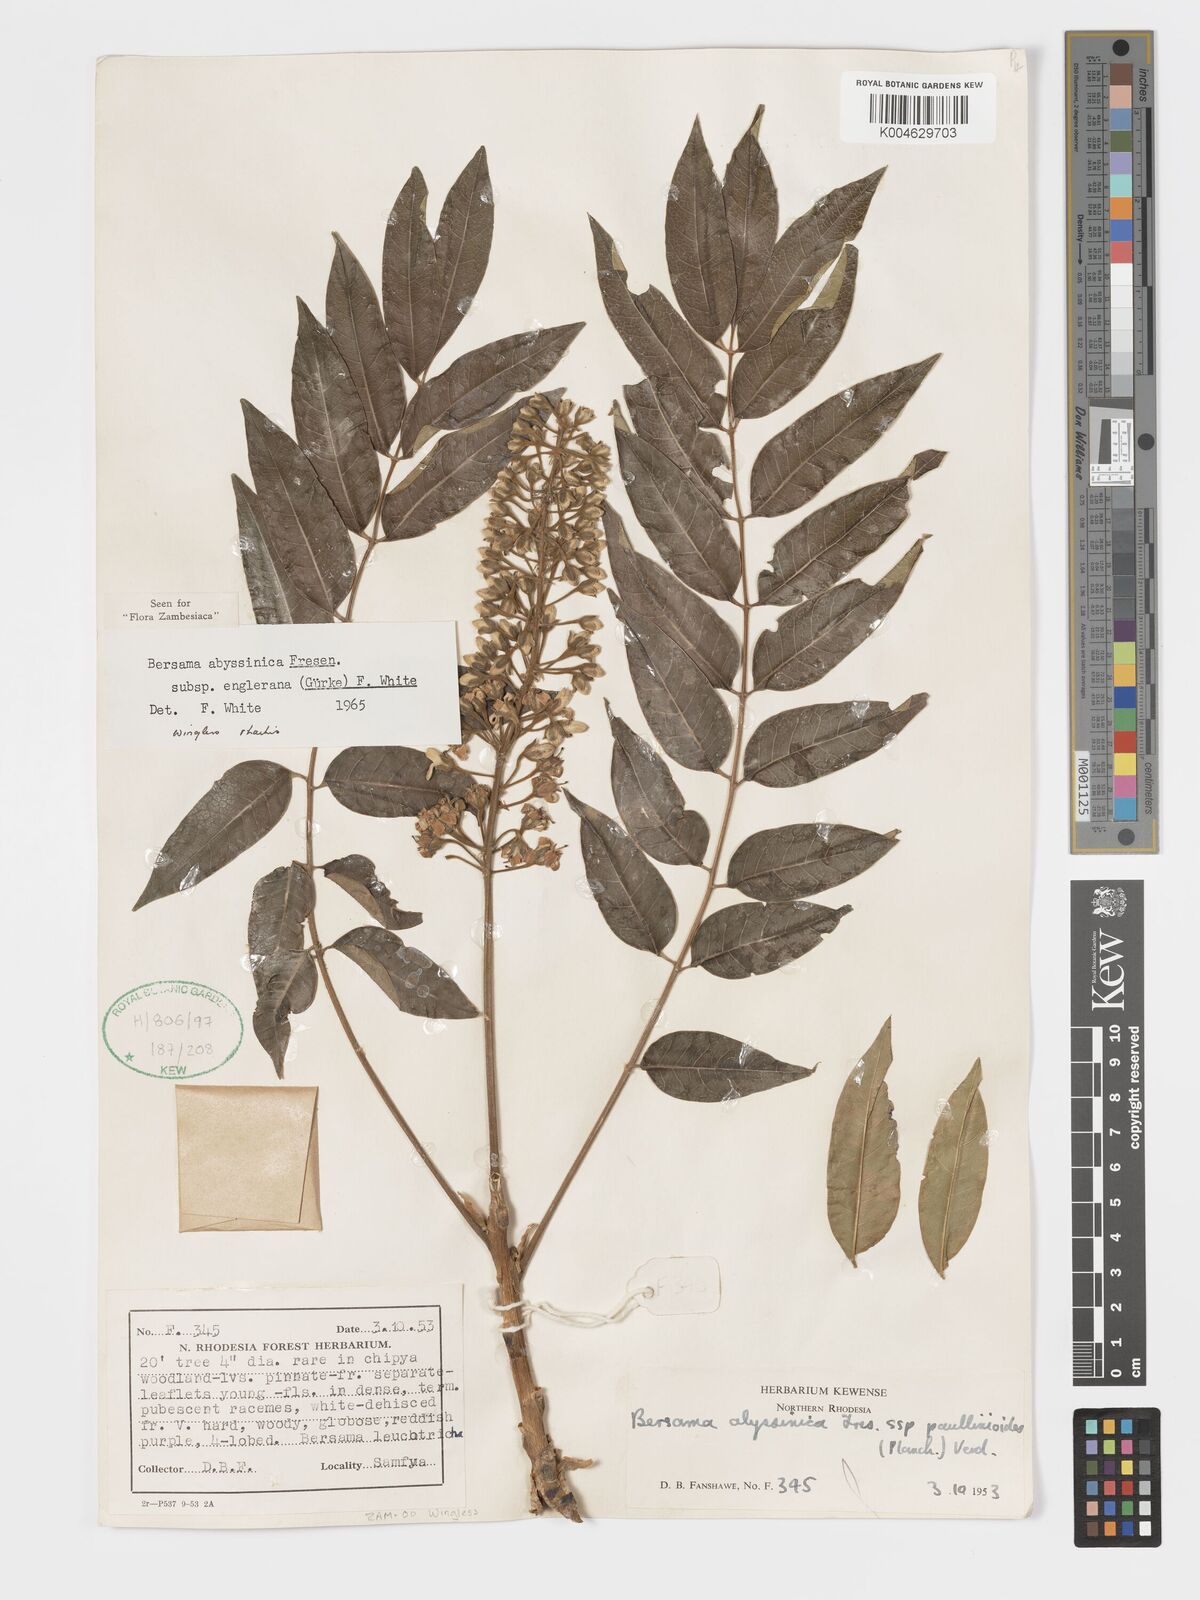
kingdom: Plantae
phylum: Tracheophyta
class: Magnoliopsida
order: Geraniales
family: Melianthaceae
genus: Bersama
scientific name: Bersama abyssinica
